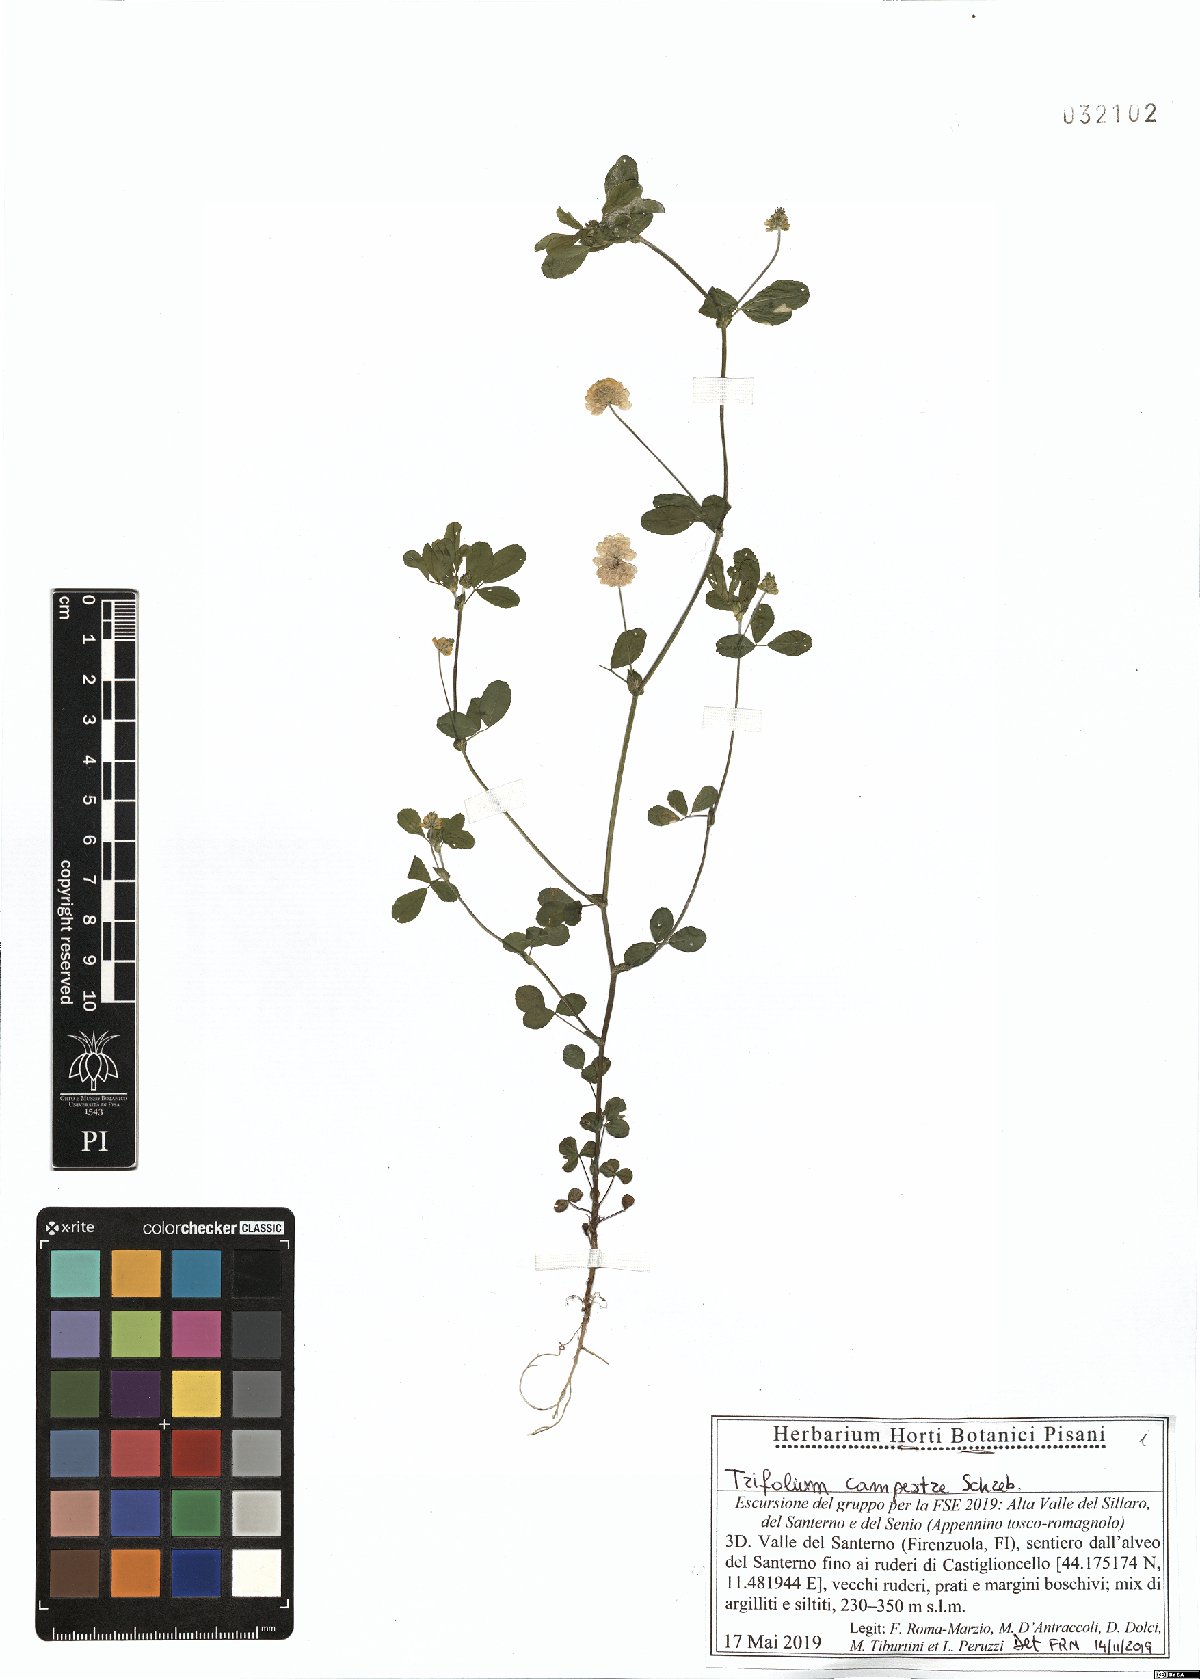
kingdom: Plantae
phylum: Tracheophyta
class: Magnoliopsida
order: Fabales
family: Fabaceae
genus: Trifolium
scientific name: Trifolium campestre
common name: Field clover
